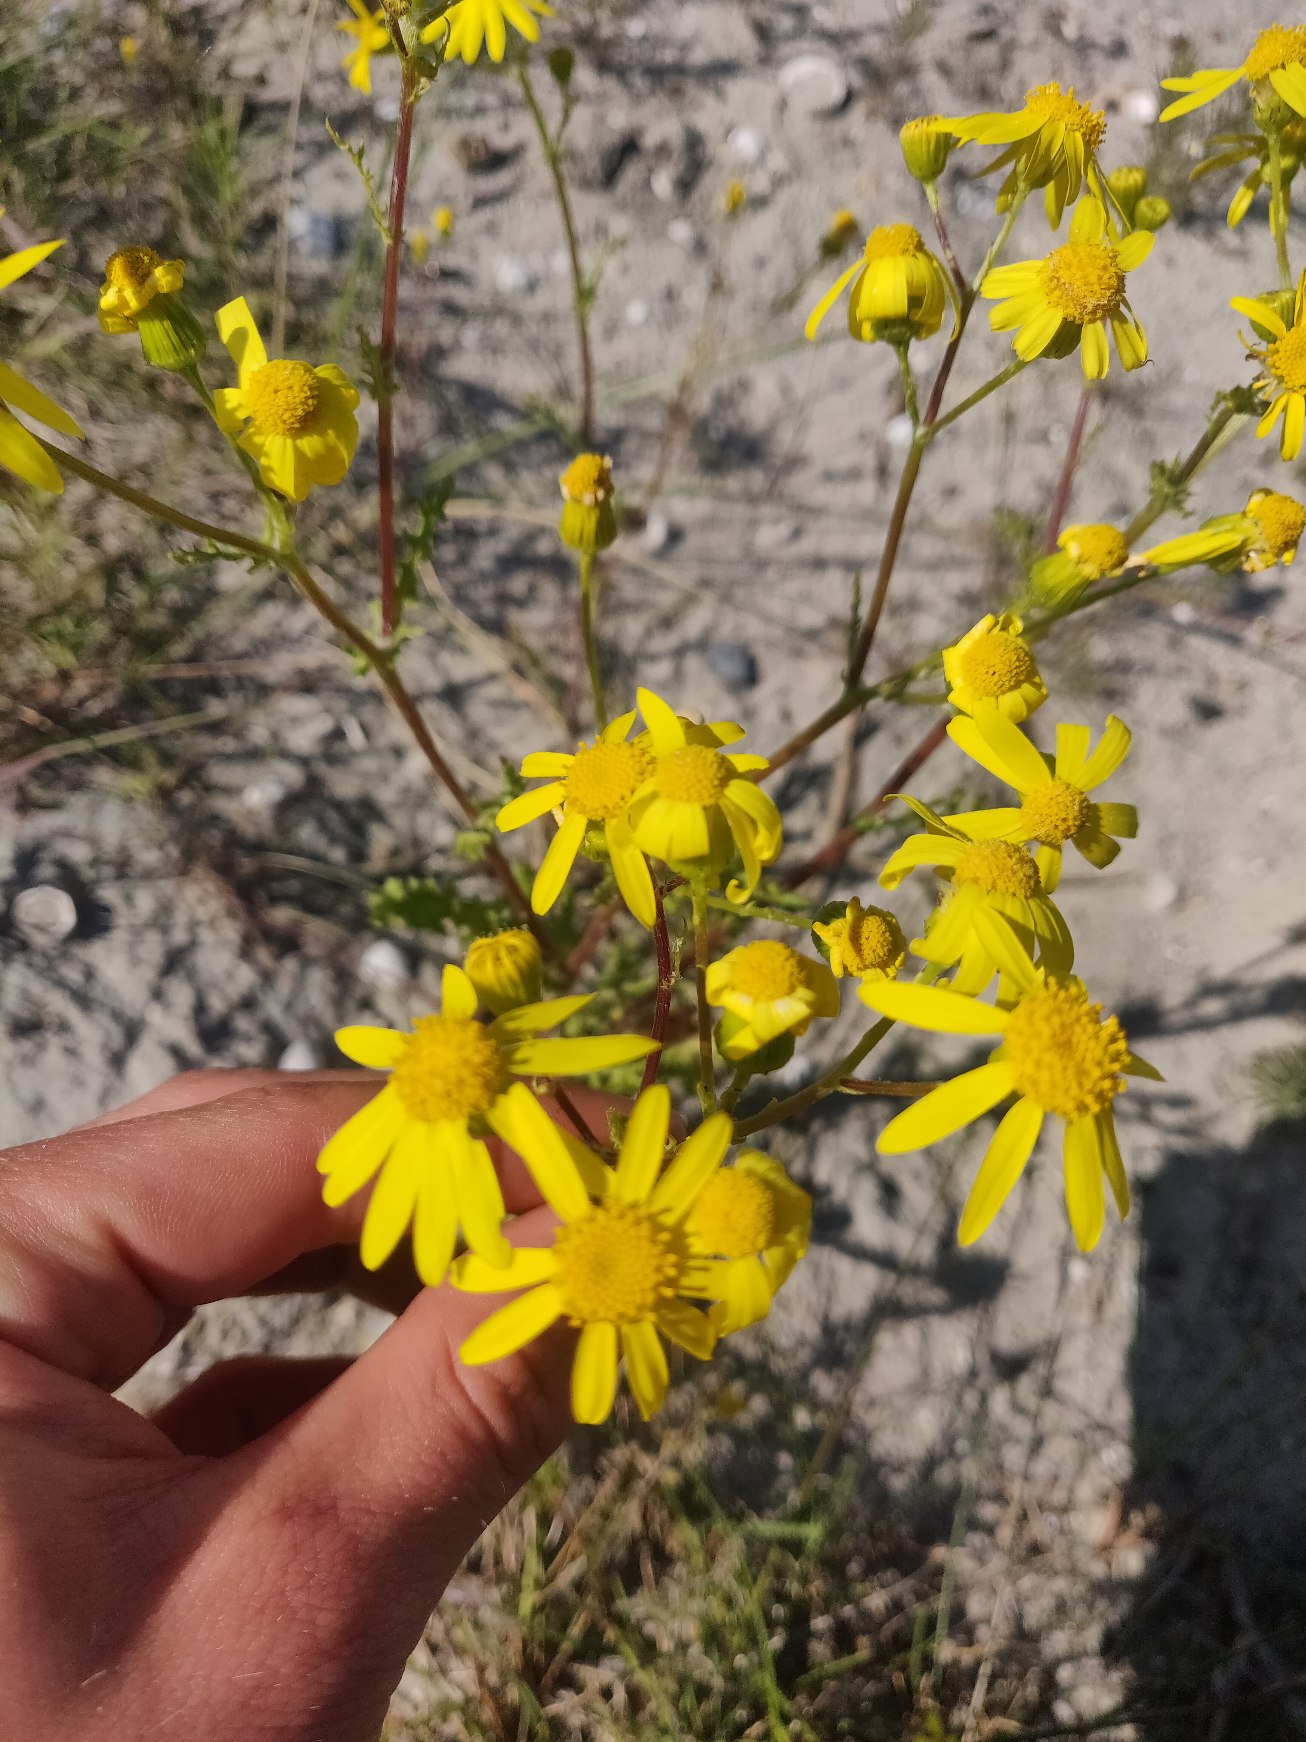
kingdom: Plantae
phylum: Tracheophyta
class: Magnoliopsida
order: Asterales
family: Asteraceae
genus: Senecio
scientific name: Senecio leucanthemifolius
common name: Vår-brandbæger
